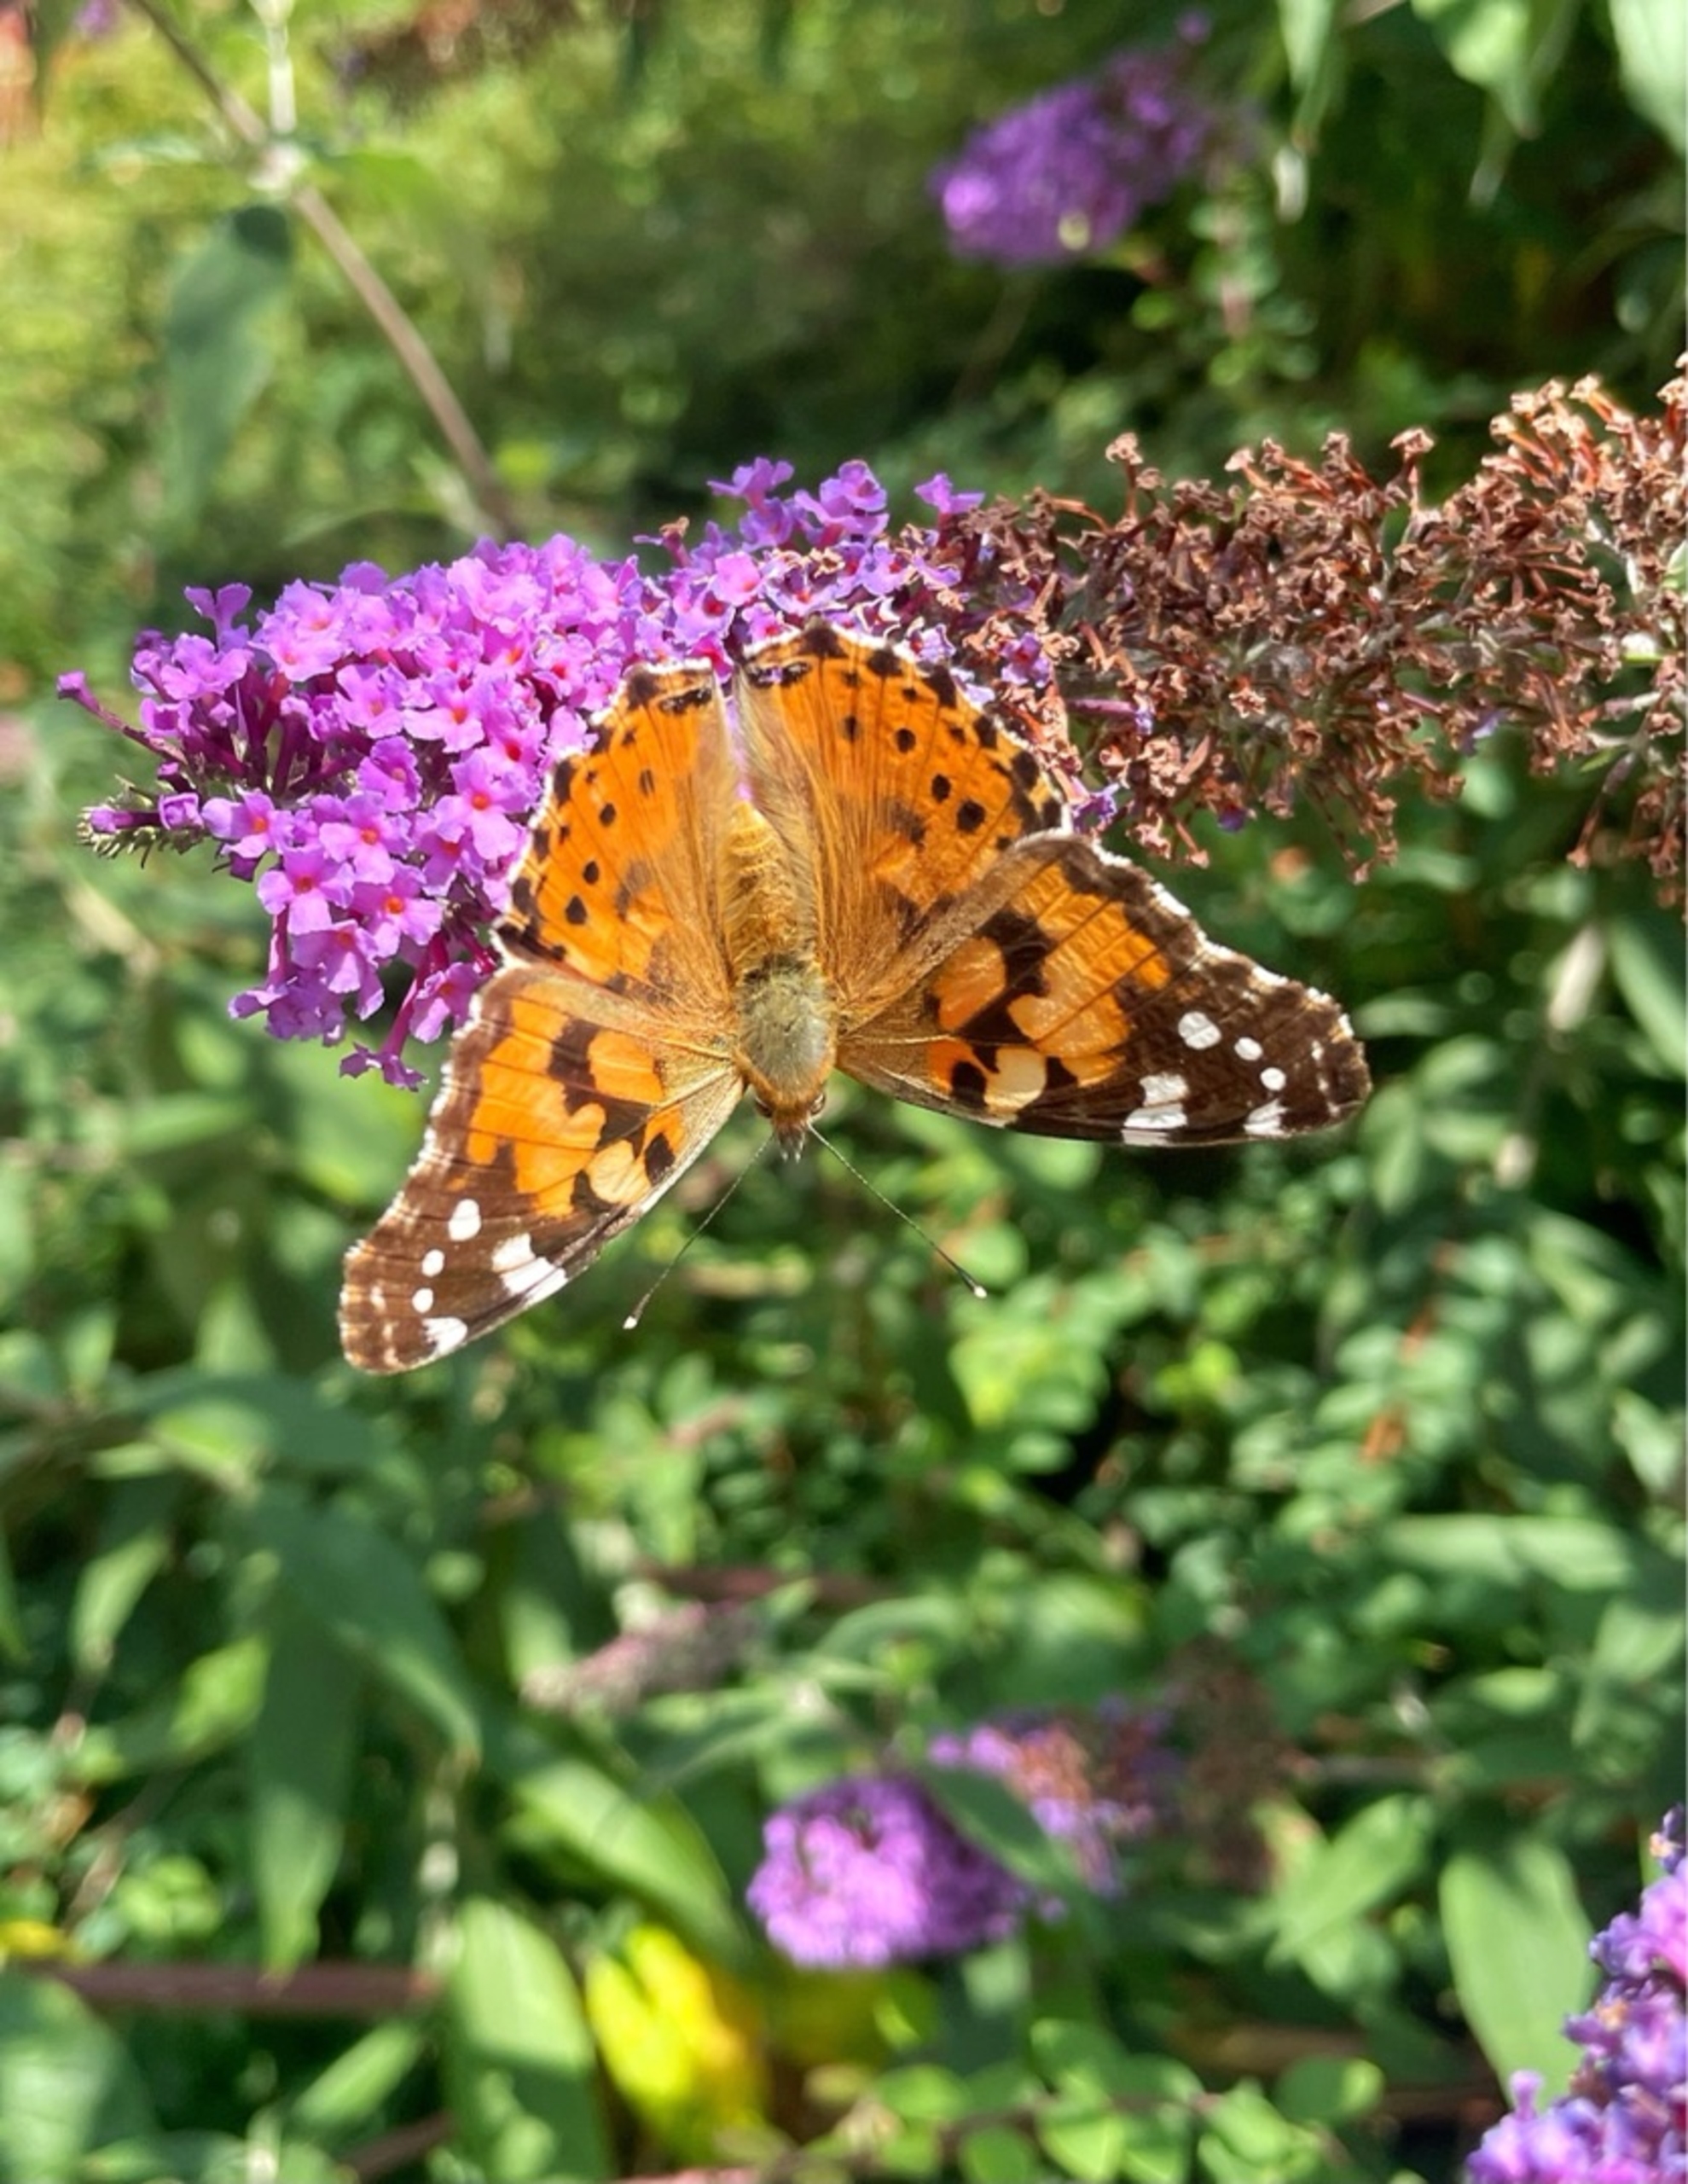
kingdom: Animalia
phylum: Arthropoda
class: Insecta
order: Lepidoptera
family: Nymphalidae
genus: Vanessa
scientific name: Vanessa cardui
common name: Tidselsommerfugl
